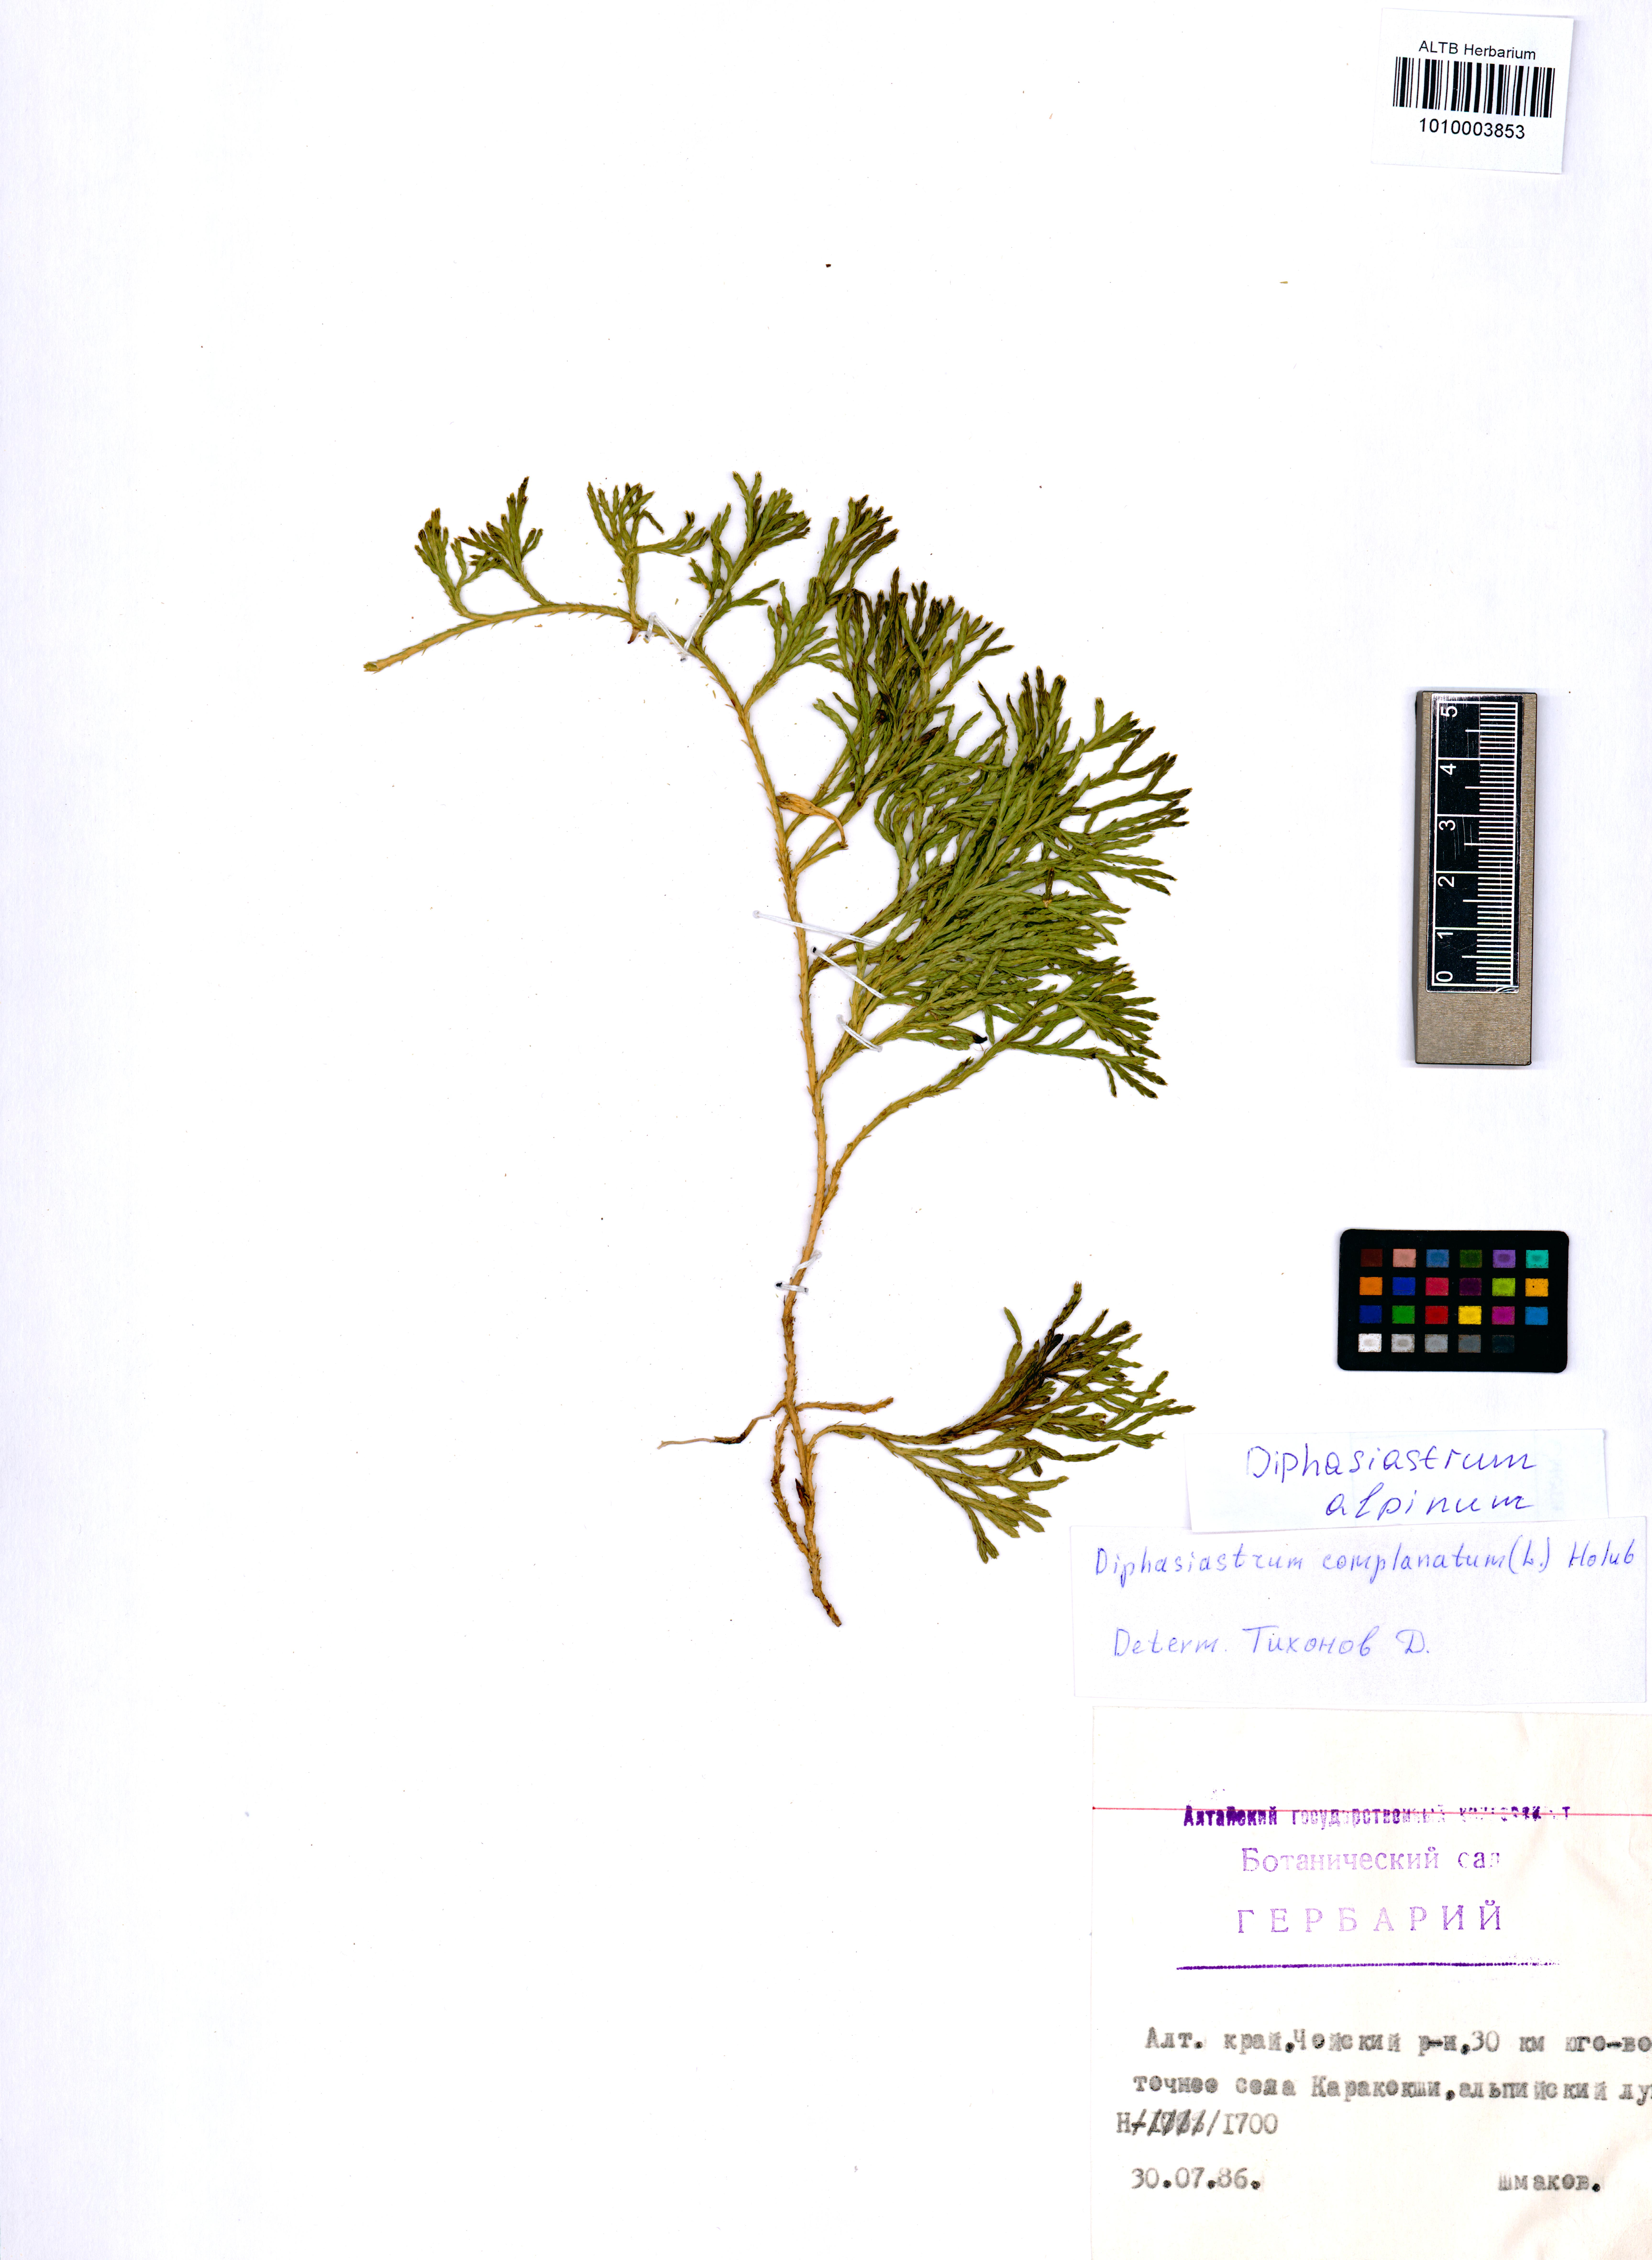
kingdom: Plantae
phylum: Tracheophyta
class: Lycopodiopsida
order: Lycopodiales
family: Lycopodiaceae
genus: Diphasiastrum
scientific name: Diphasiastrum alpinum
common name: Alpine clubmoss
